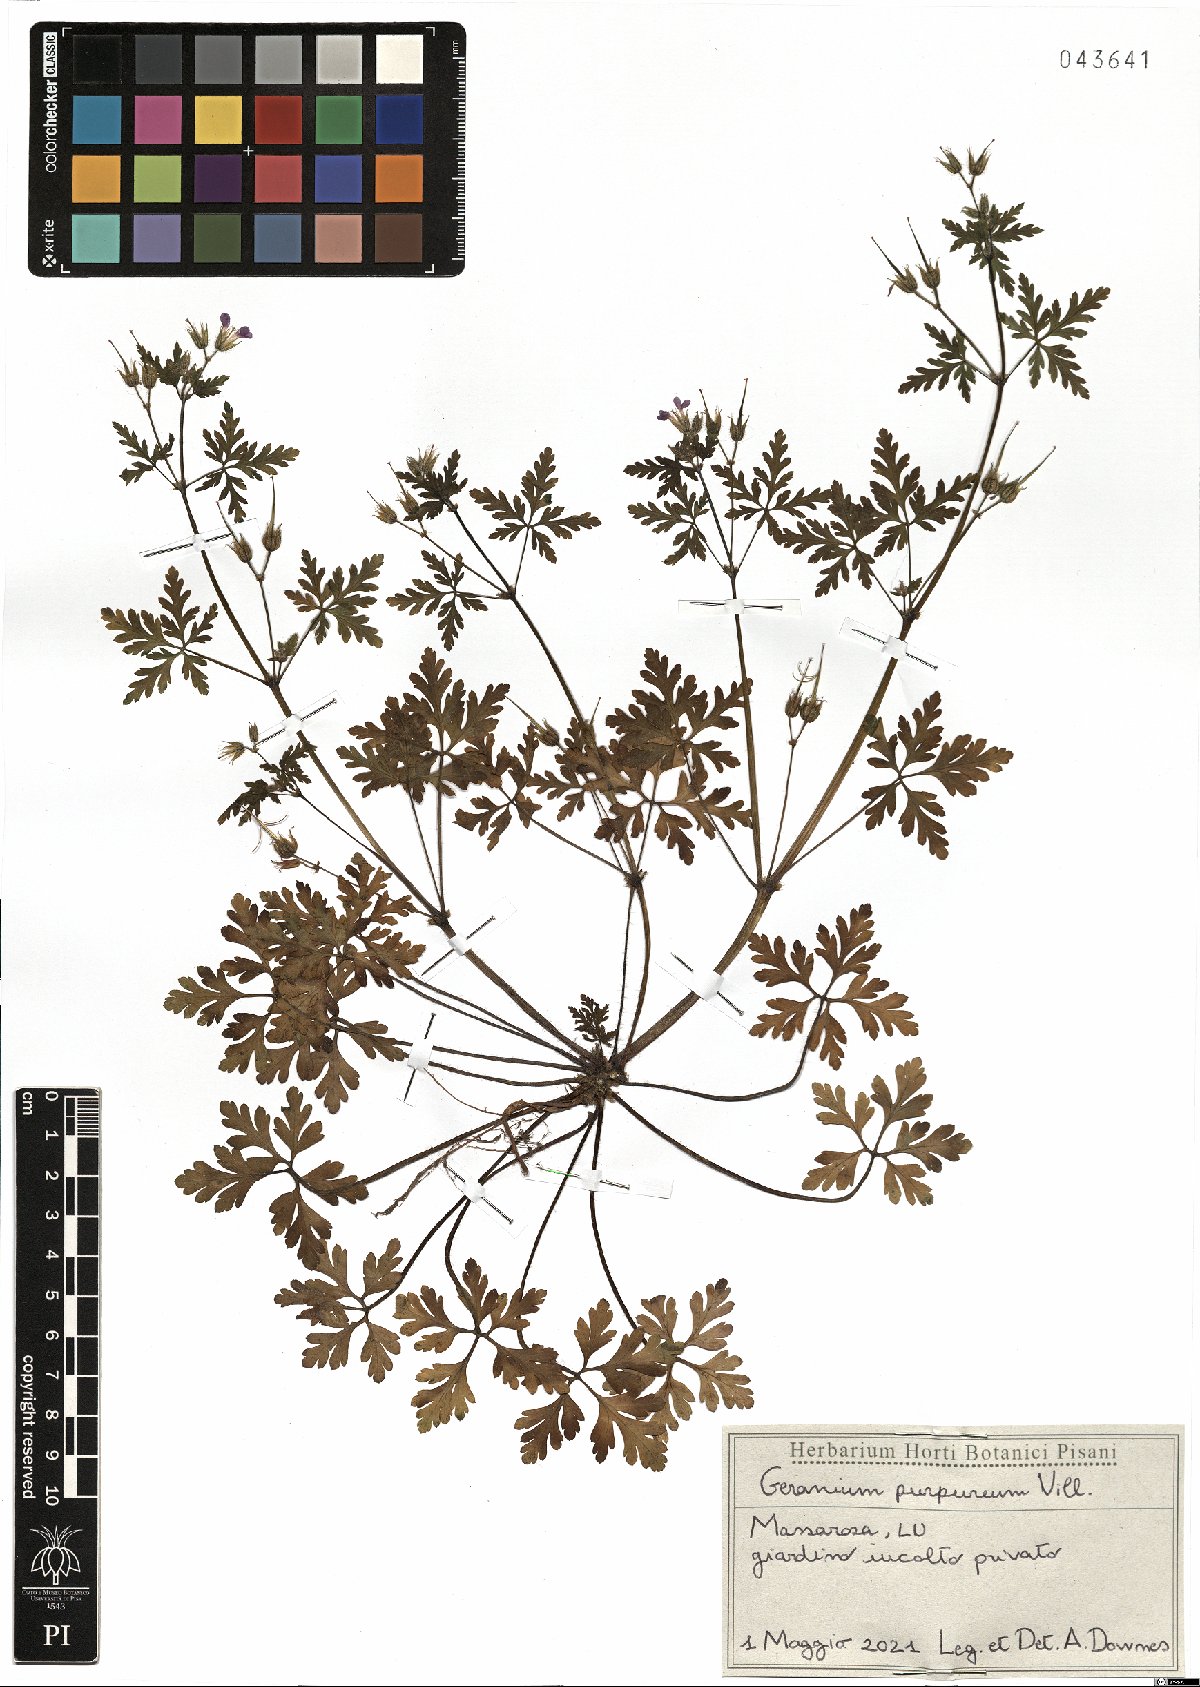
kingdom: Plantae
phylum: Tracheophyta
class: Magnoliopsida
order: Geraniales
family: Geraniaceae
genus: Geranium
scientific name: Geranium purpureum
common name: Little-robin
